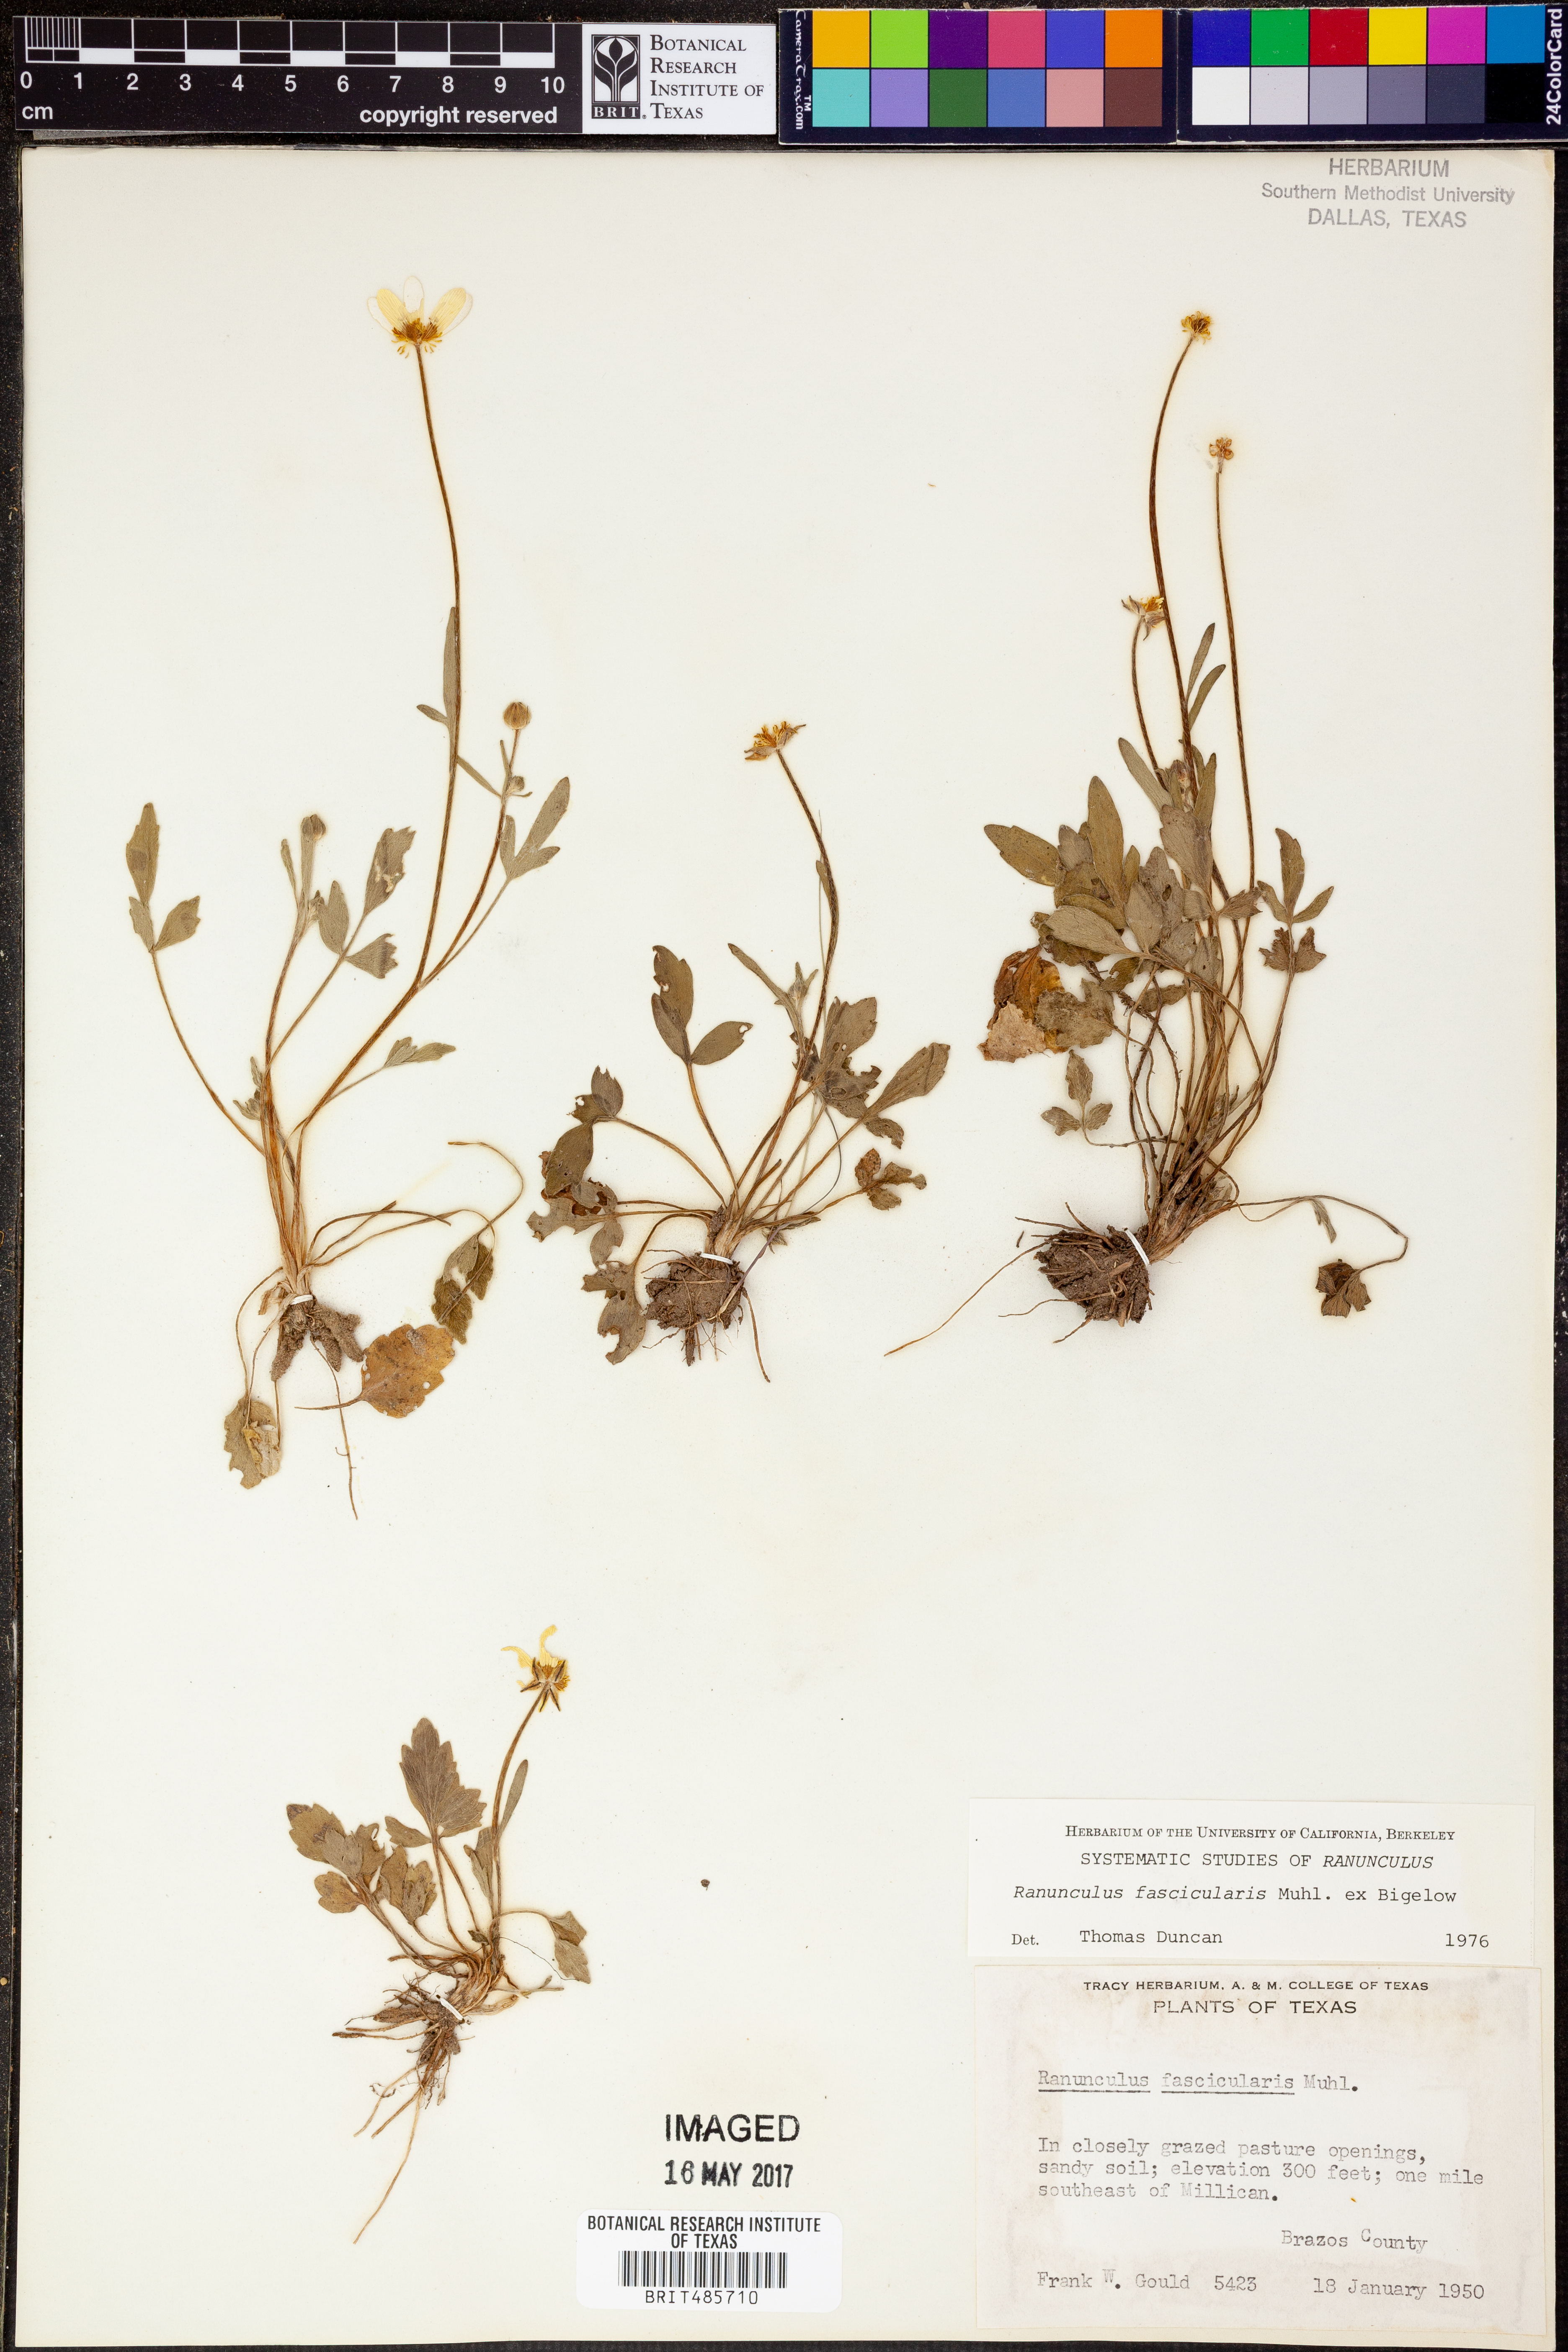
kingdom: Plantae
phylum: Tracheophyta
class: Magnoliopsida
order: Ranunculales
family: Ranunculaceae
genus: Ranunculus
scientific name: Ranunculus fascicularis
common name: Early buttercup
